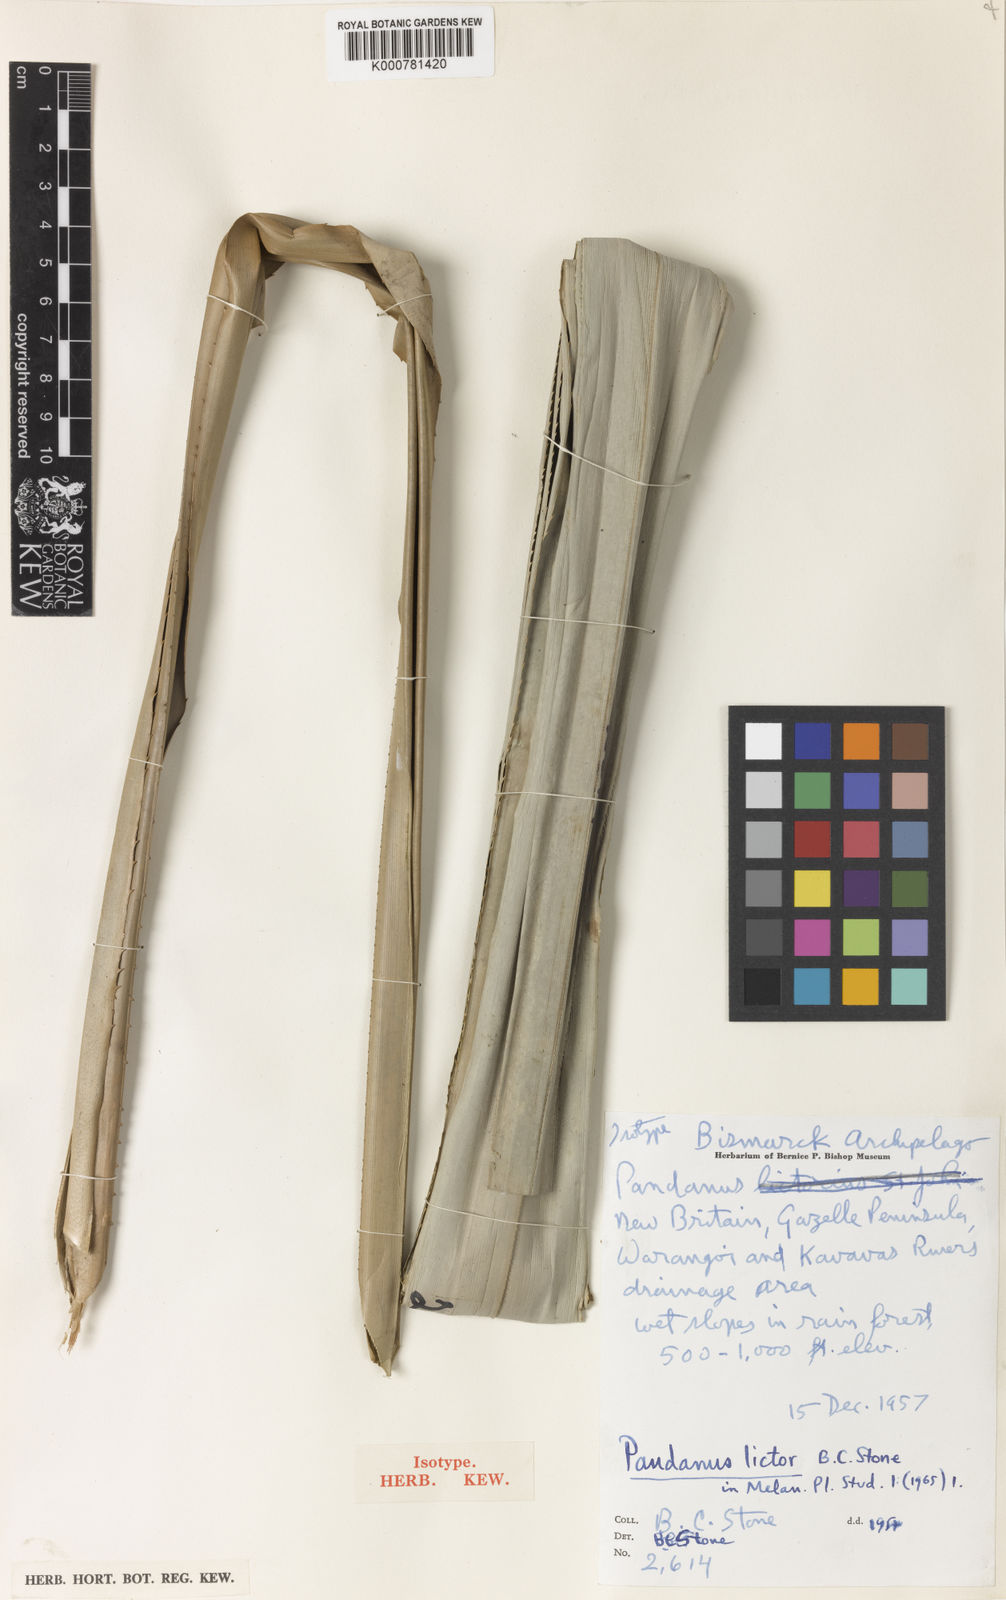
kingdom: Plantae
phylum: Tracheophyta
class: Liliopsida
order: Pandanales
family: Pandanaceae
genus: Benstonea
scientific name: Benstonea stenocarpa
